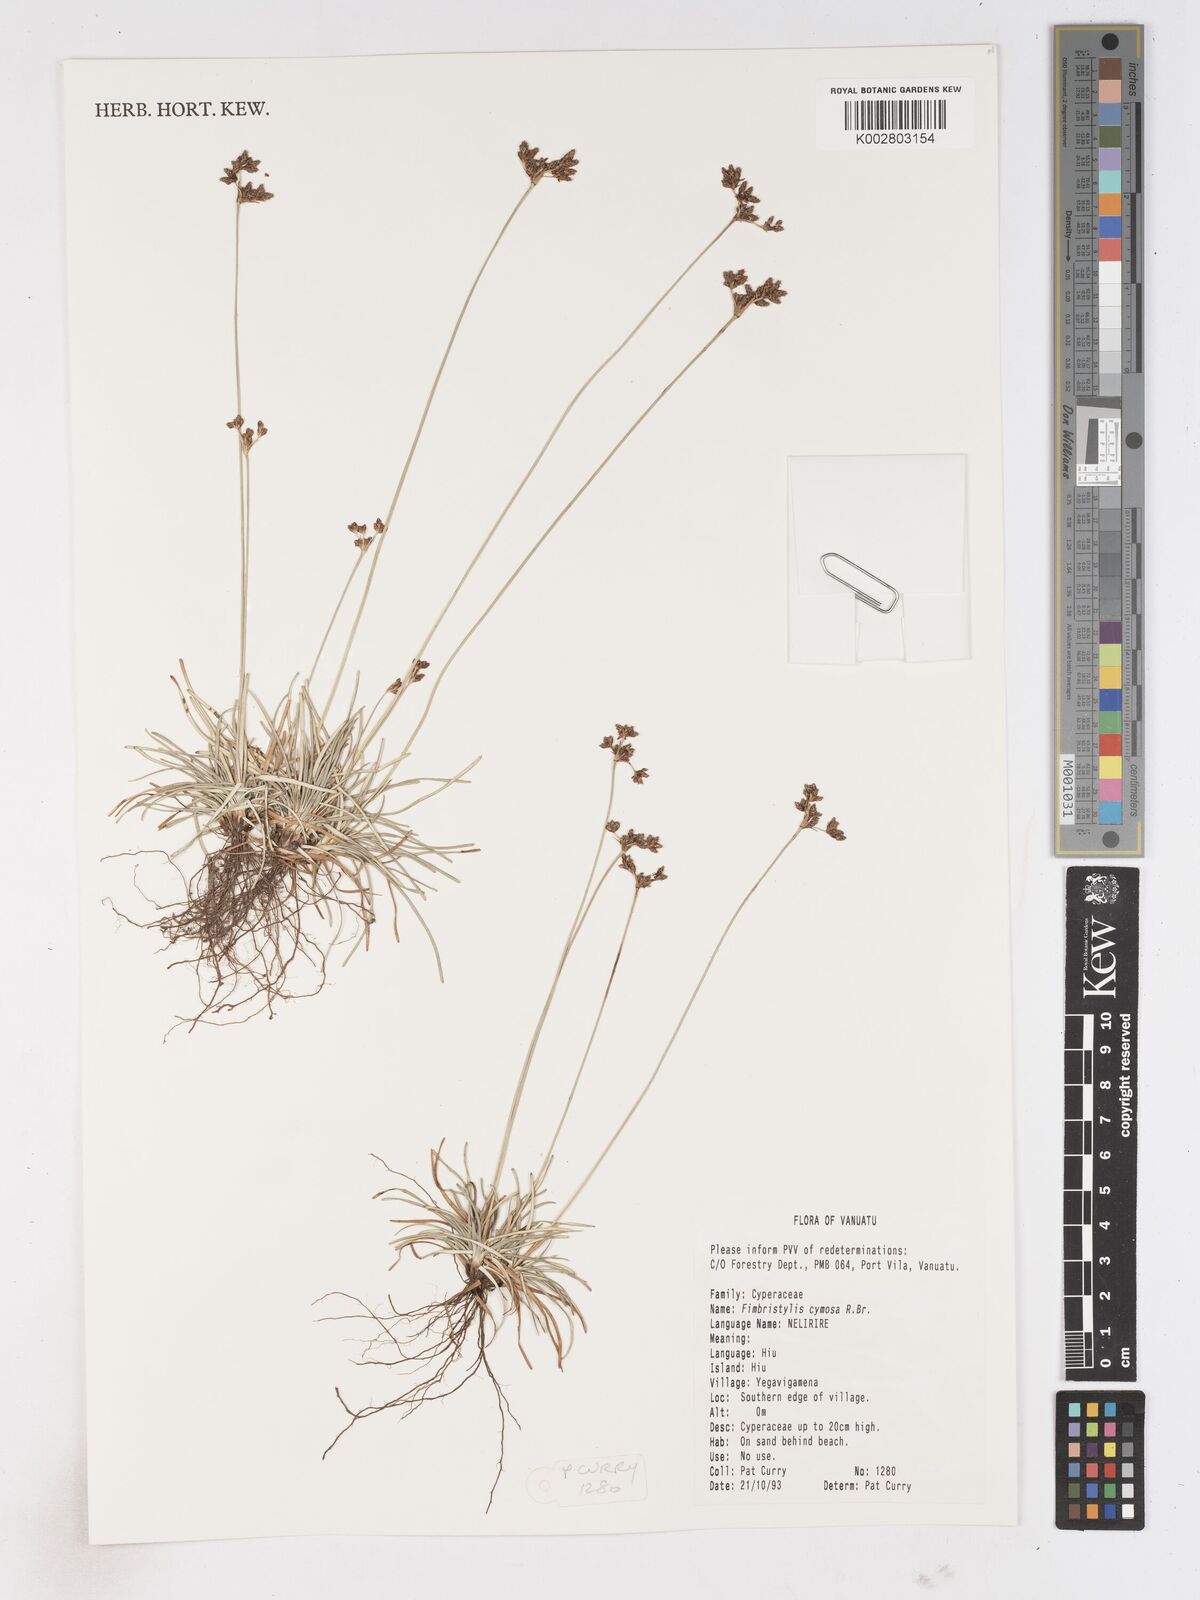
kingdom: Plantae
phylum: Tracheophyta
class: Liliopsida
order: Poales
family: Cyperaceae
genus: Fimbristylis
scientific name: Fimbristylis cymosa
